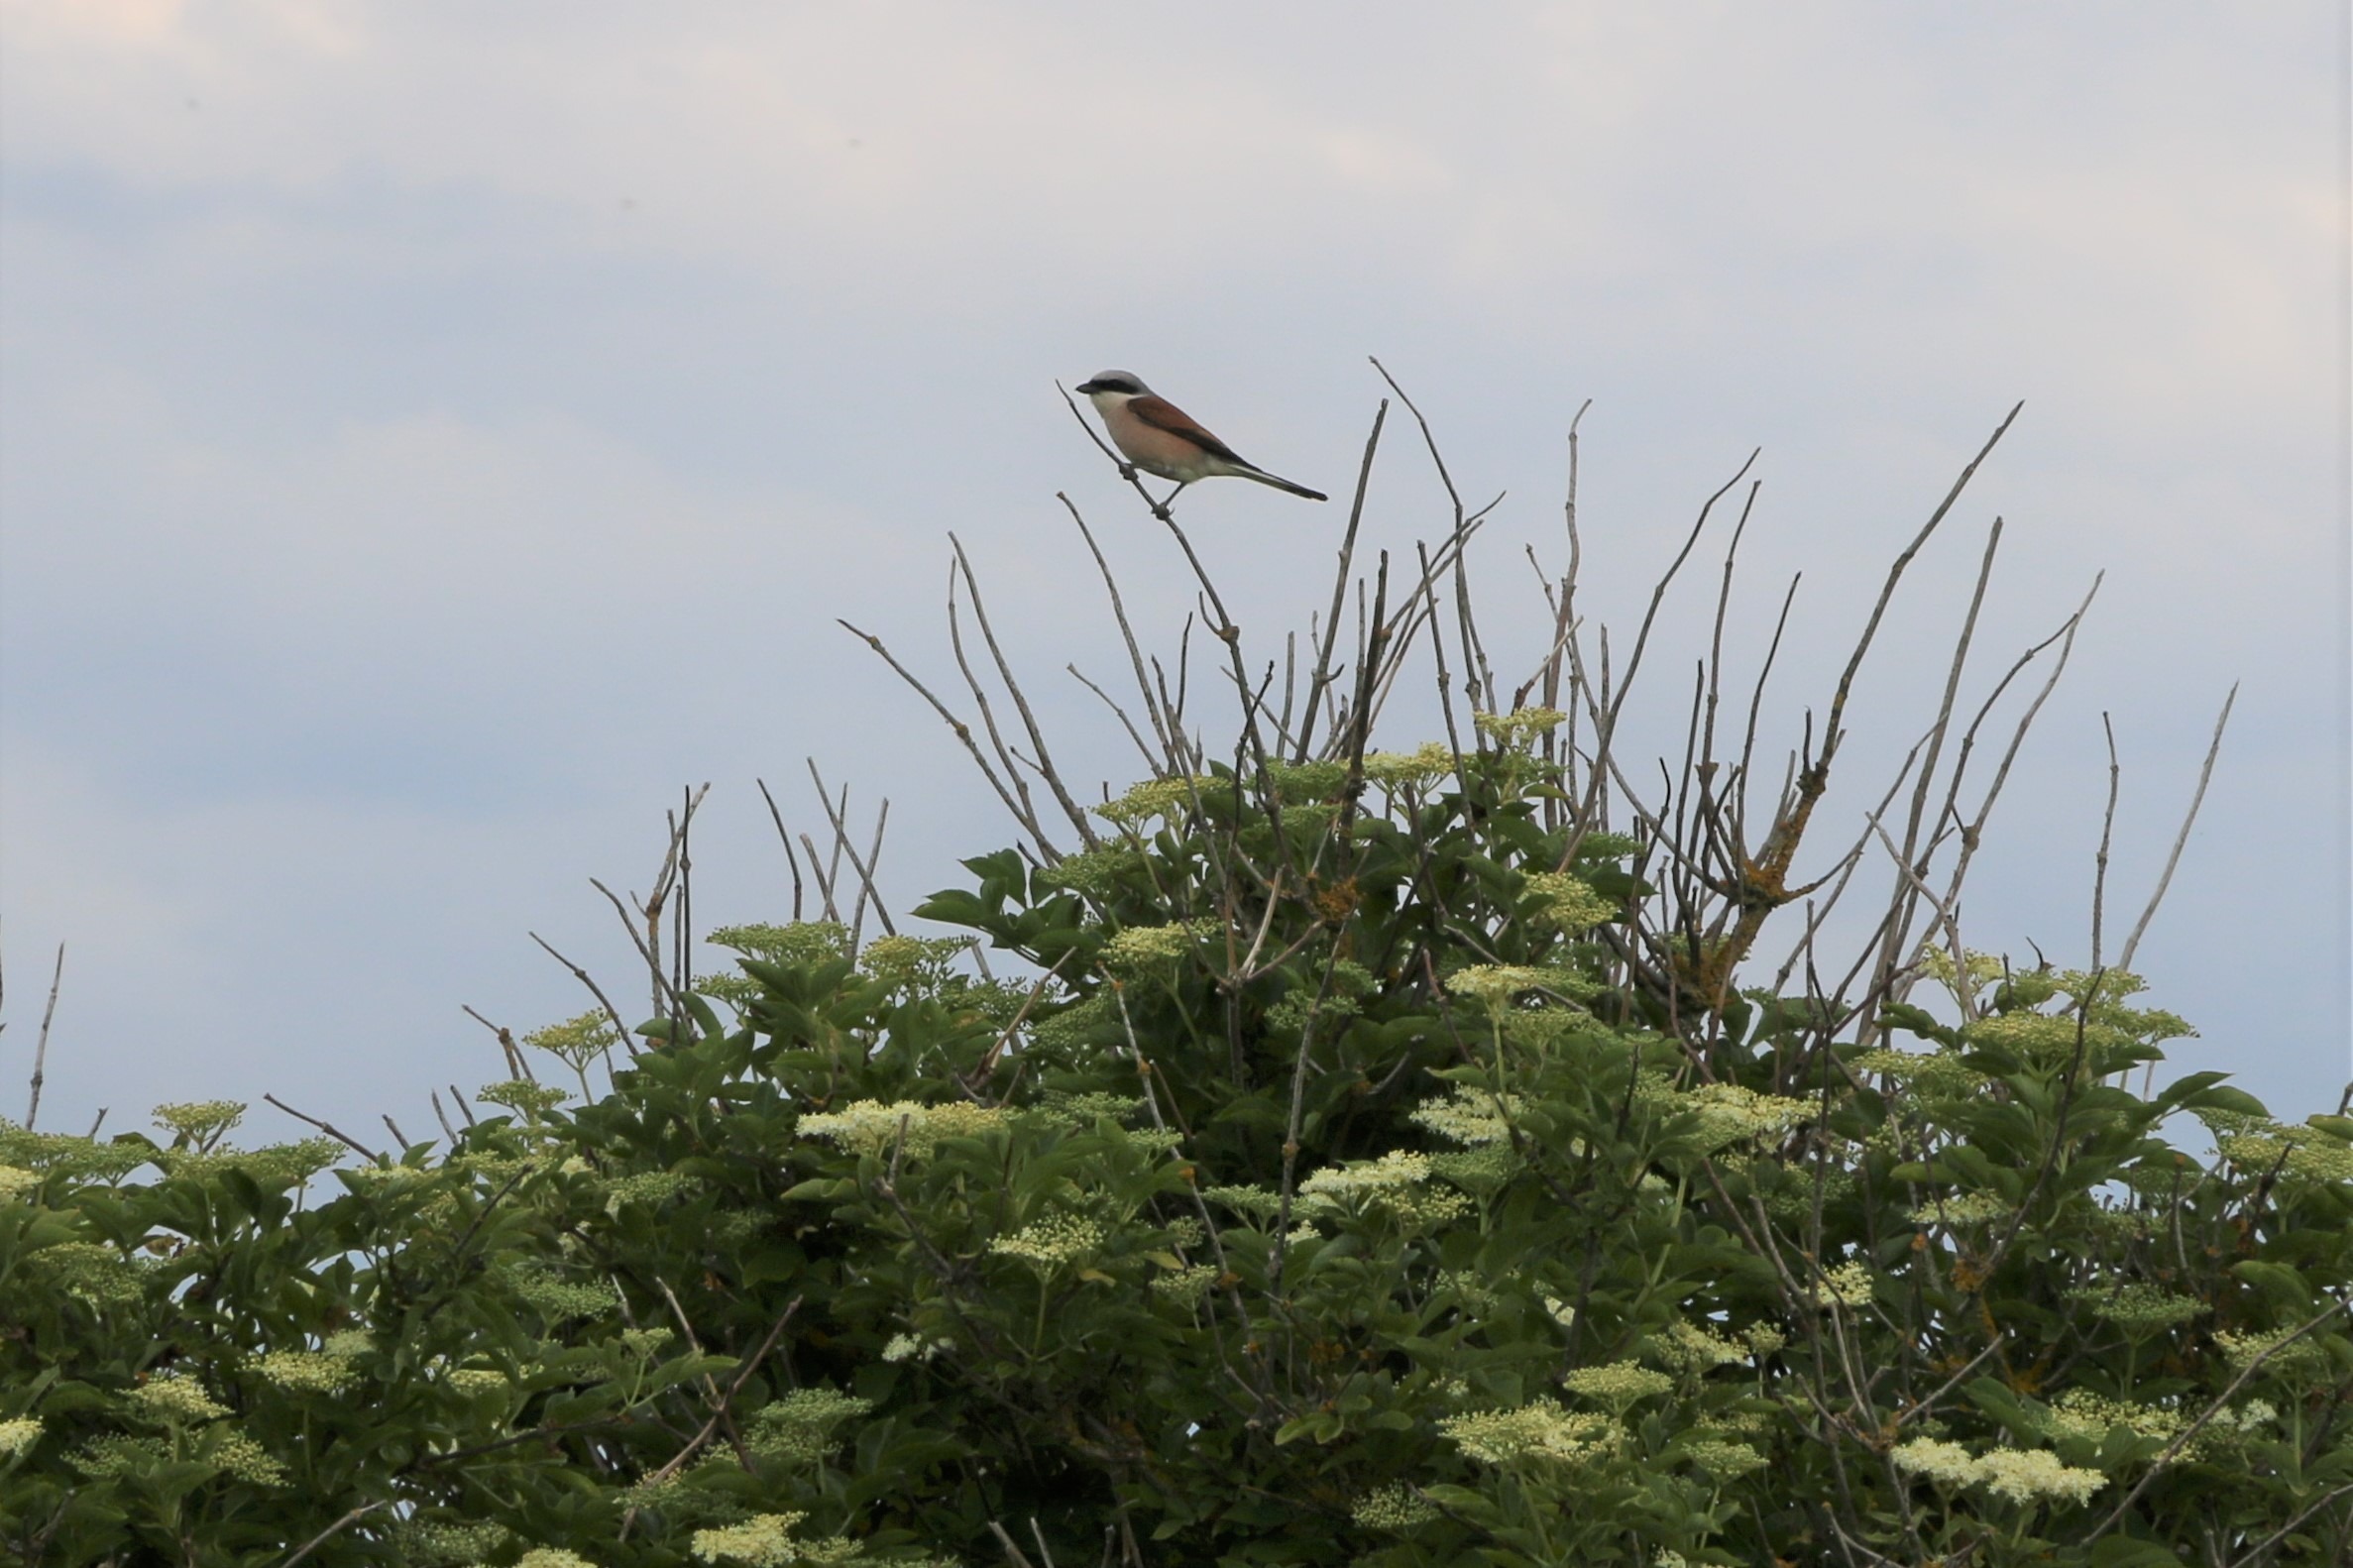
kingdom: Animalia
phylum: Chordata
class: Aves
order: Passeriformes
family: Laniidae
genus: Lanius
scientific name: Lanius collurio
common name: Rødrygget tornskade
